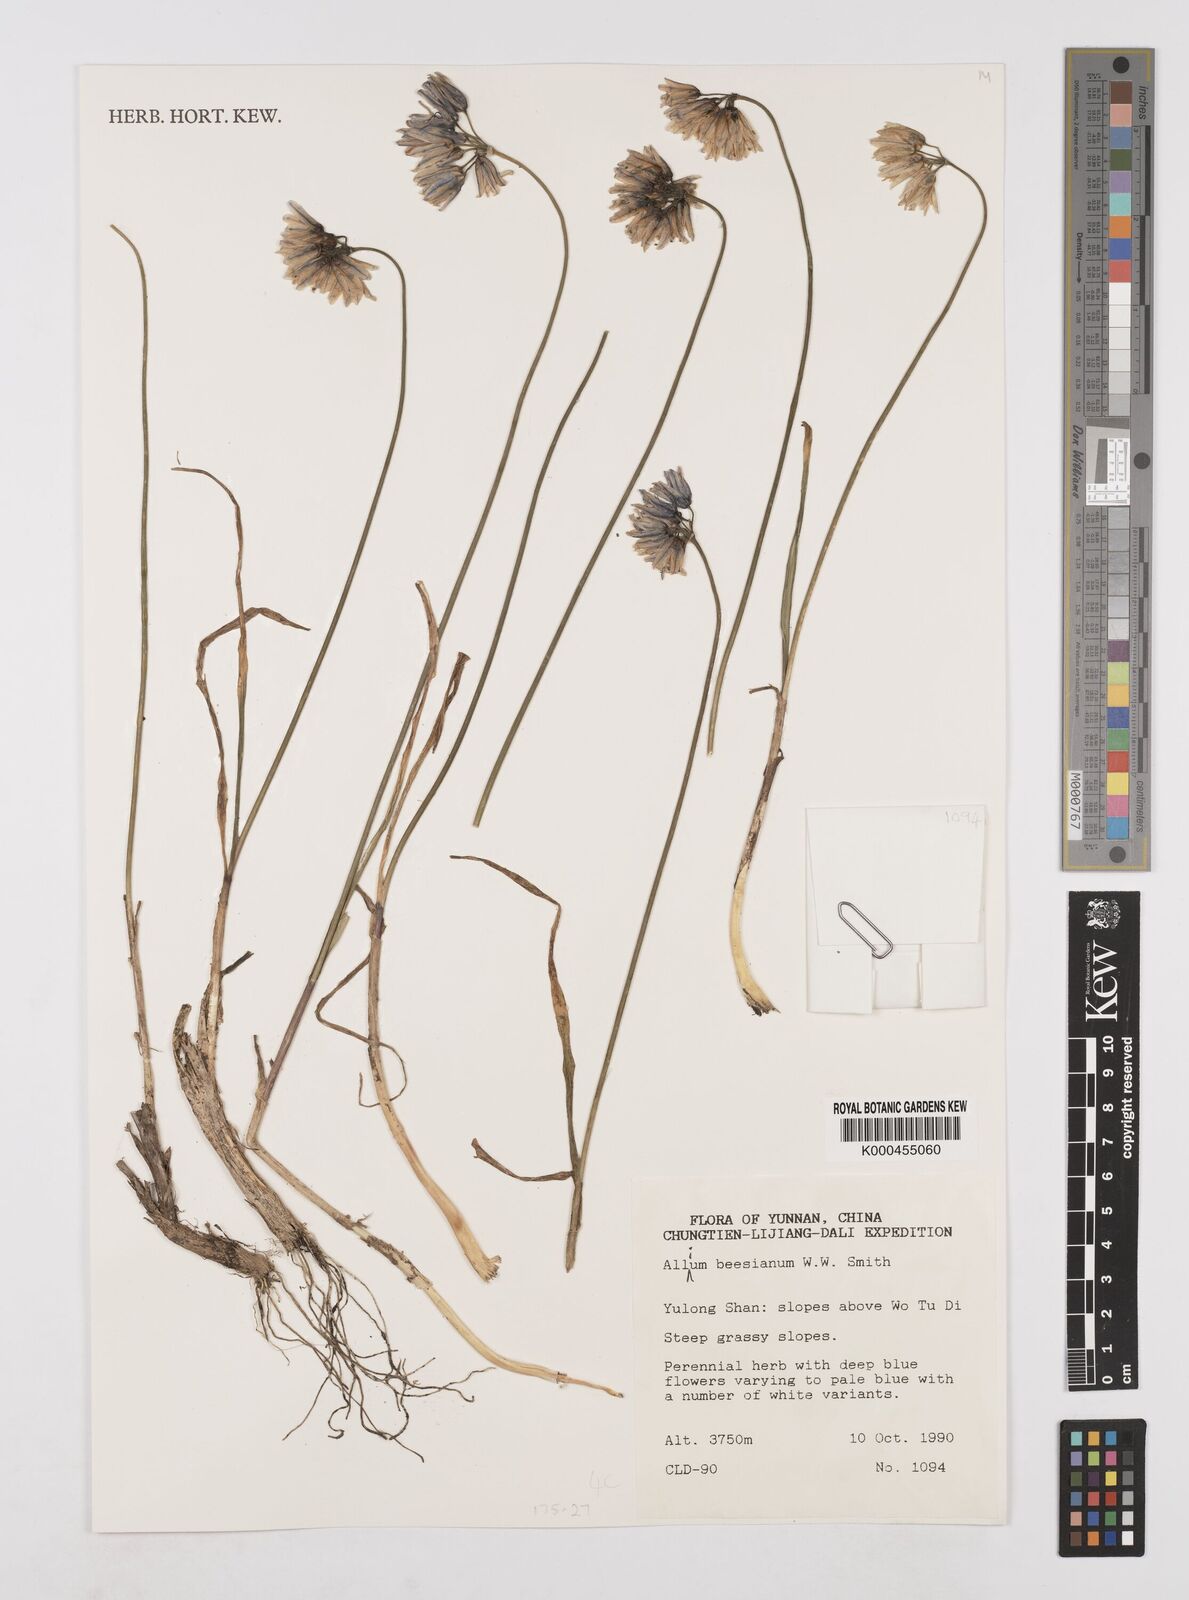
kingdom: Plantae
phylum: Tracheophyta
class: Liliopsida
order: Asparagales
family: Amaryllidaceae
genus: Allium
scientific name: Allium beesianum
